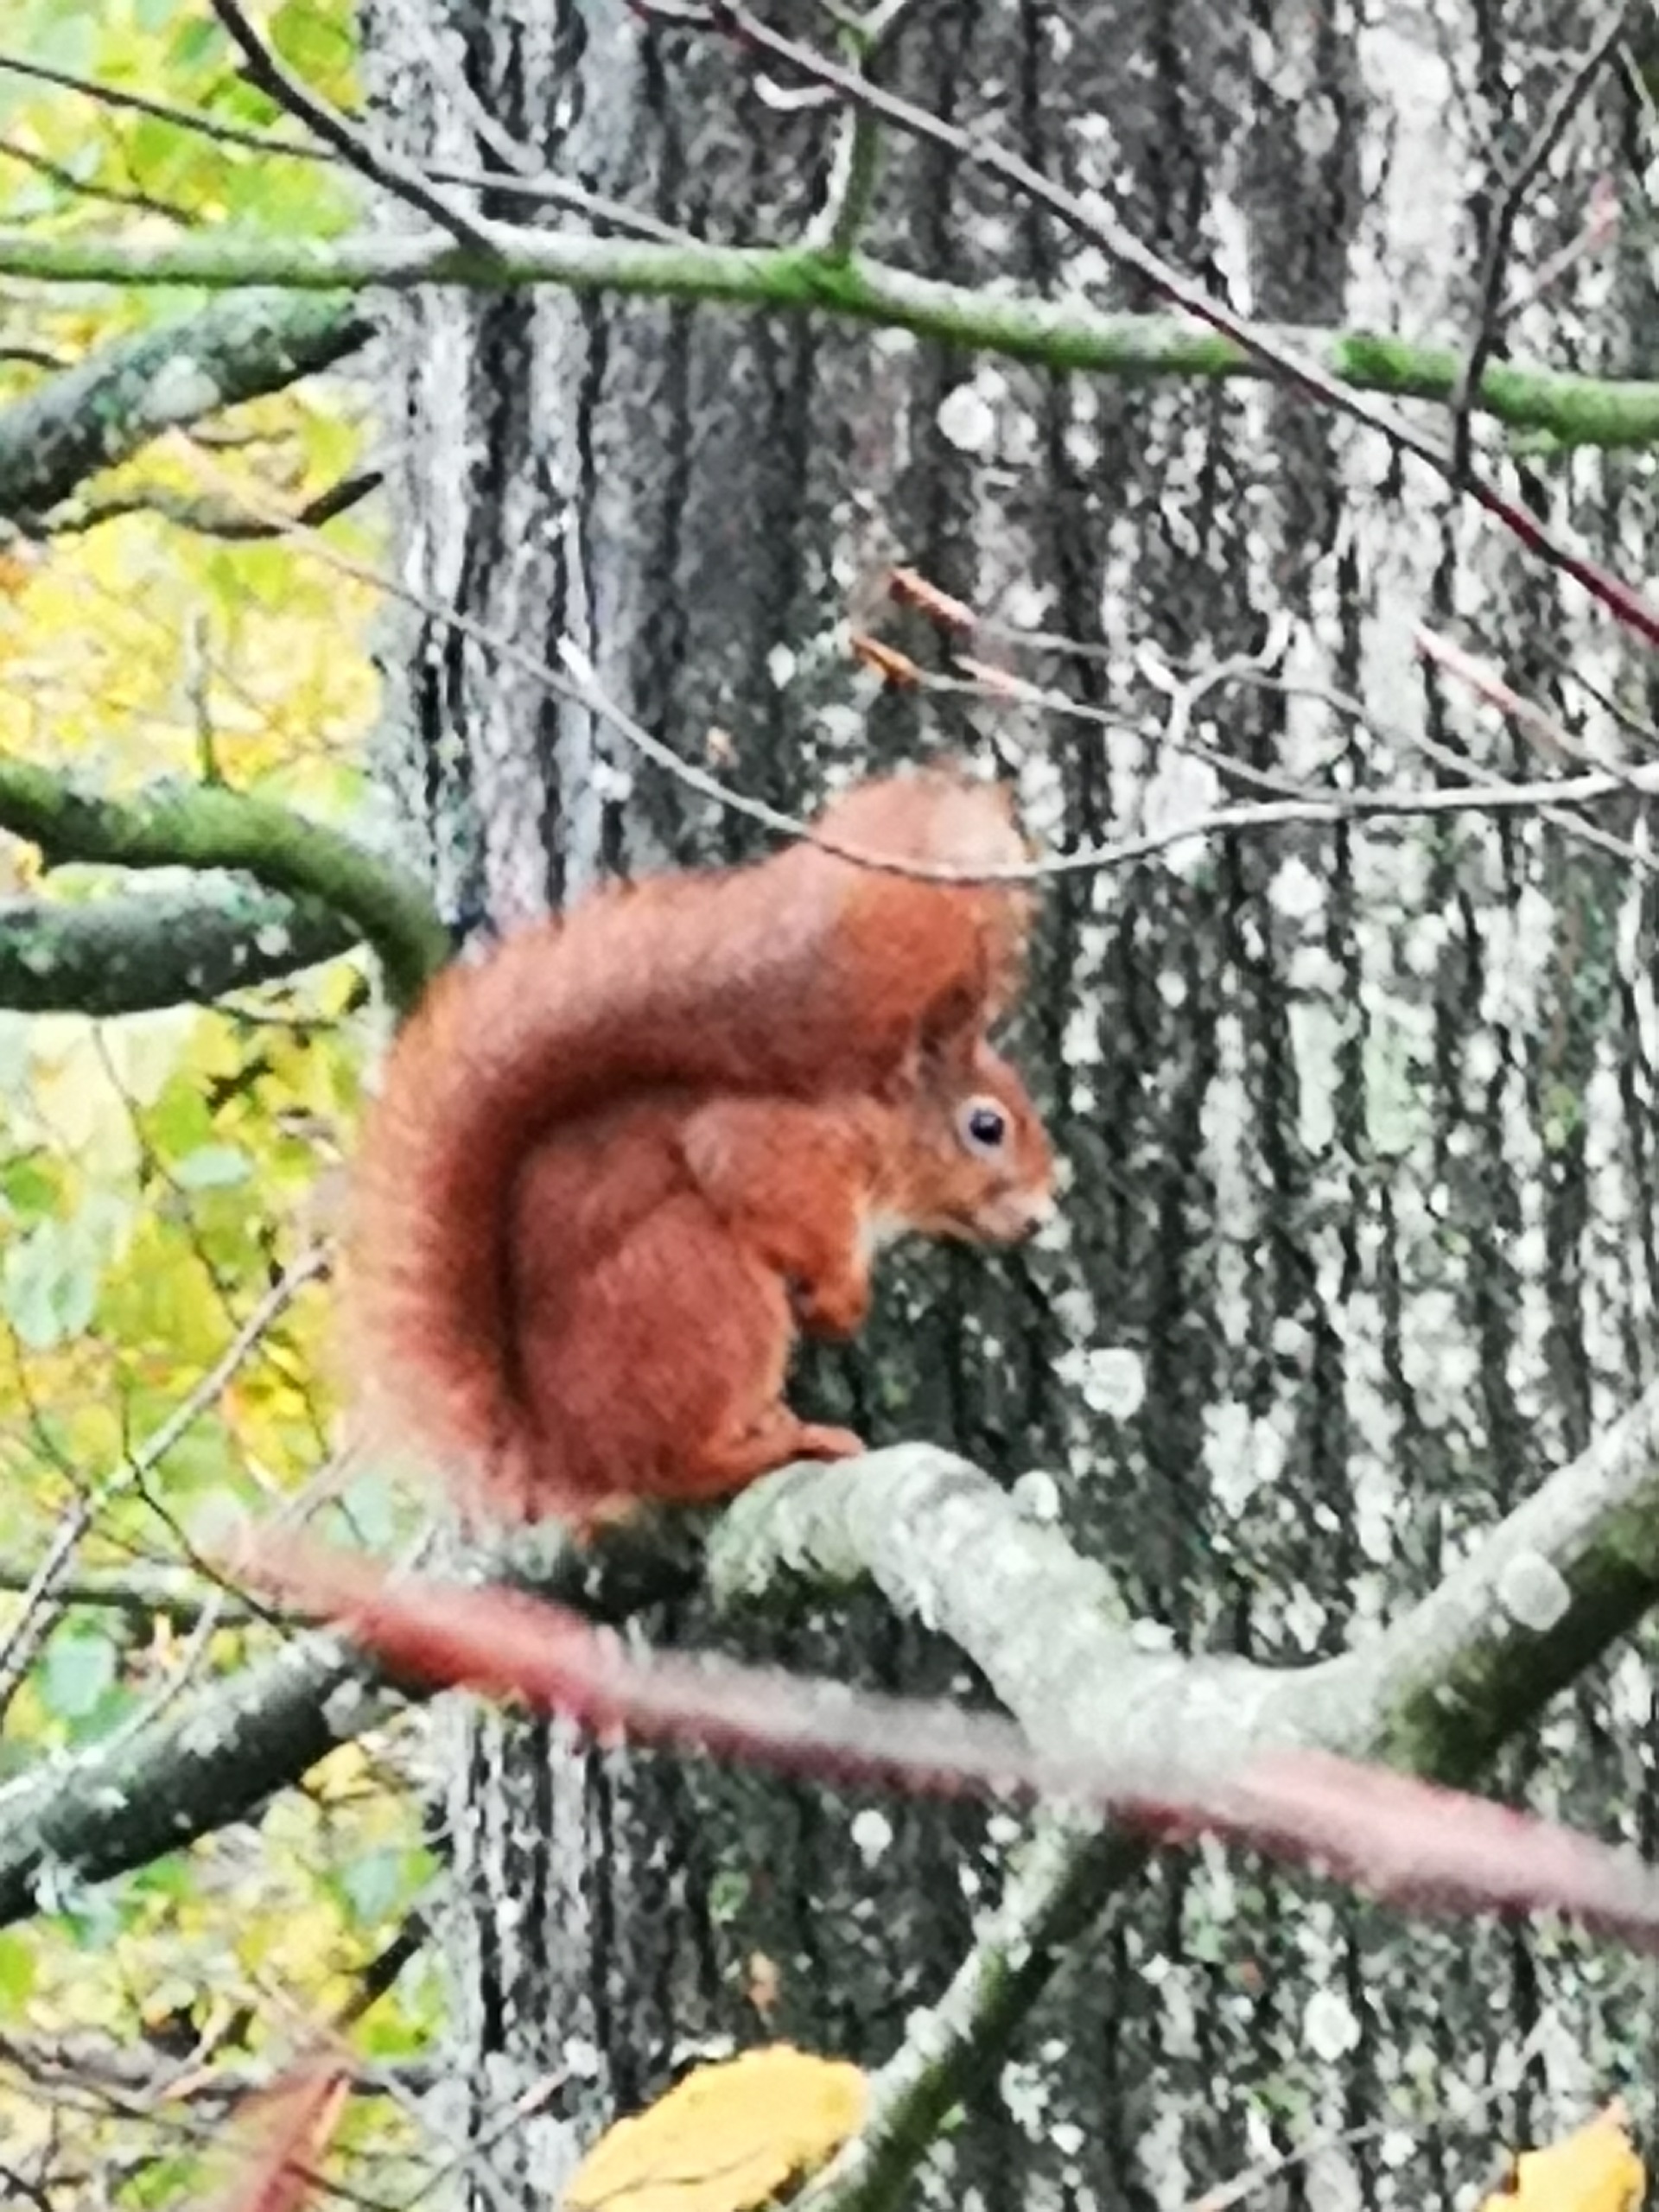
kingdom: Animalia
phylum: Chordata
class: Mammalia
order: Rodentia
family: Sciuridae
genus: Sciurus
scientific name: Sciurus vulgaris
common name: Egern
